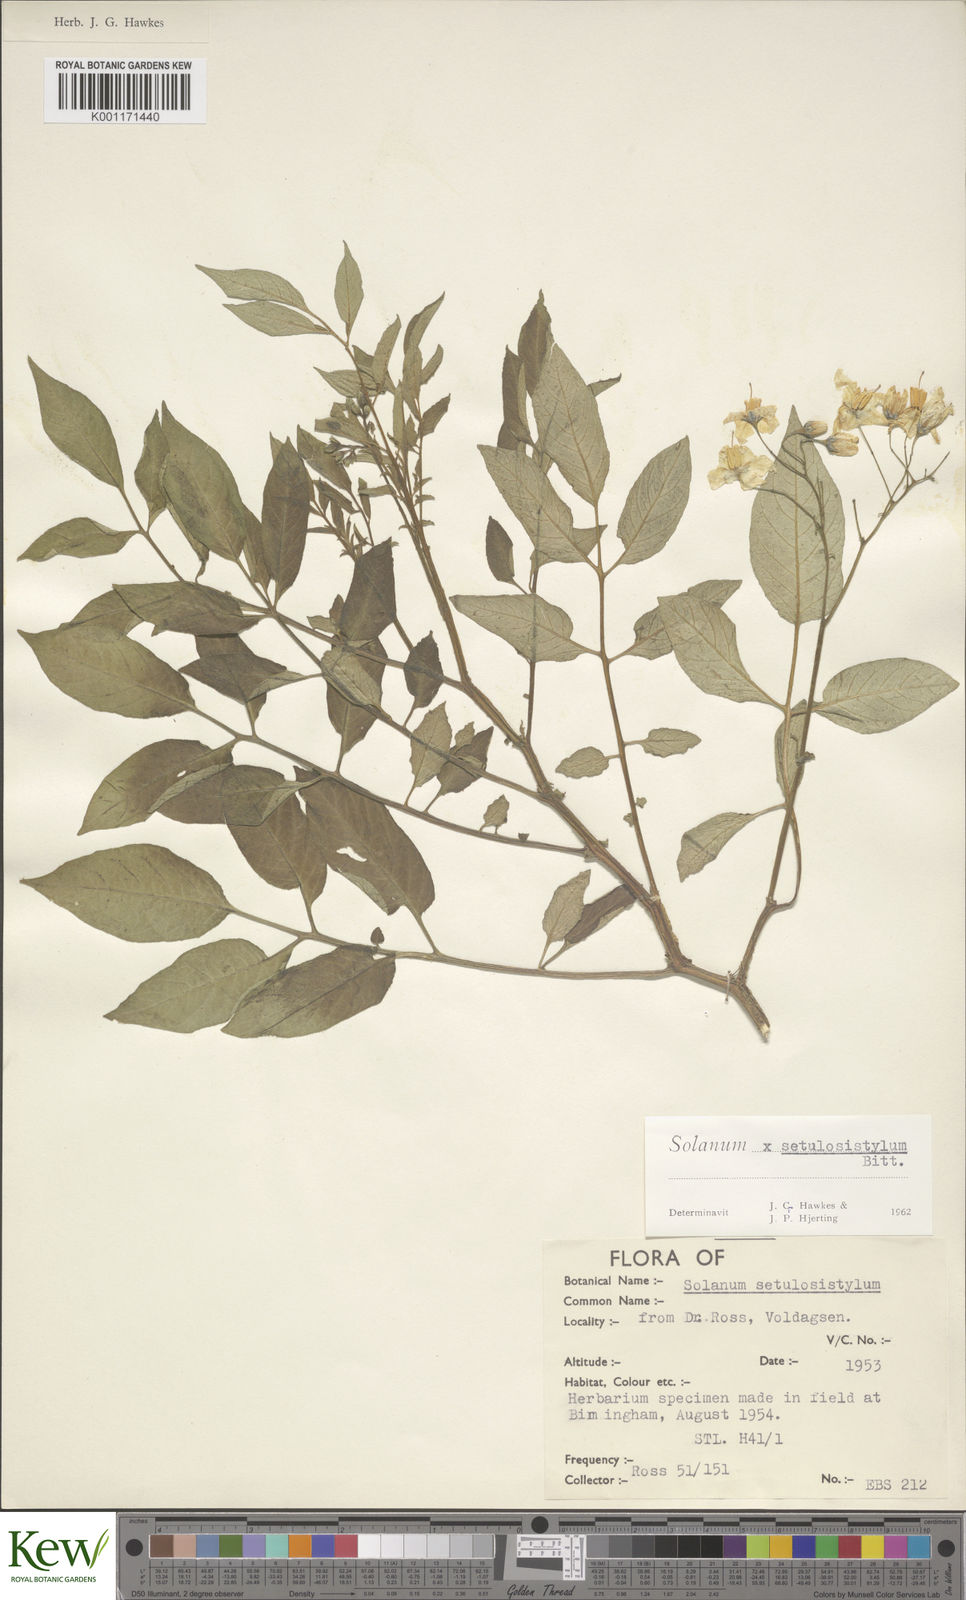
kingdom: Plantae
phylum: Tracheophyta
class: Magnoliopsida
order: Solanales
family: Solanaceae
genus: Solanum
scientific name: Solanum brevicaule
